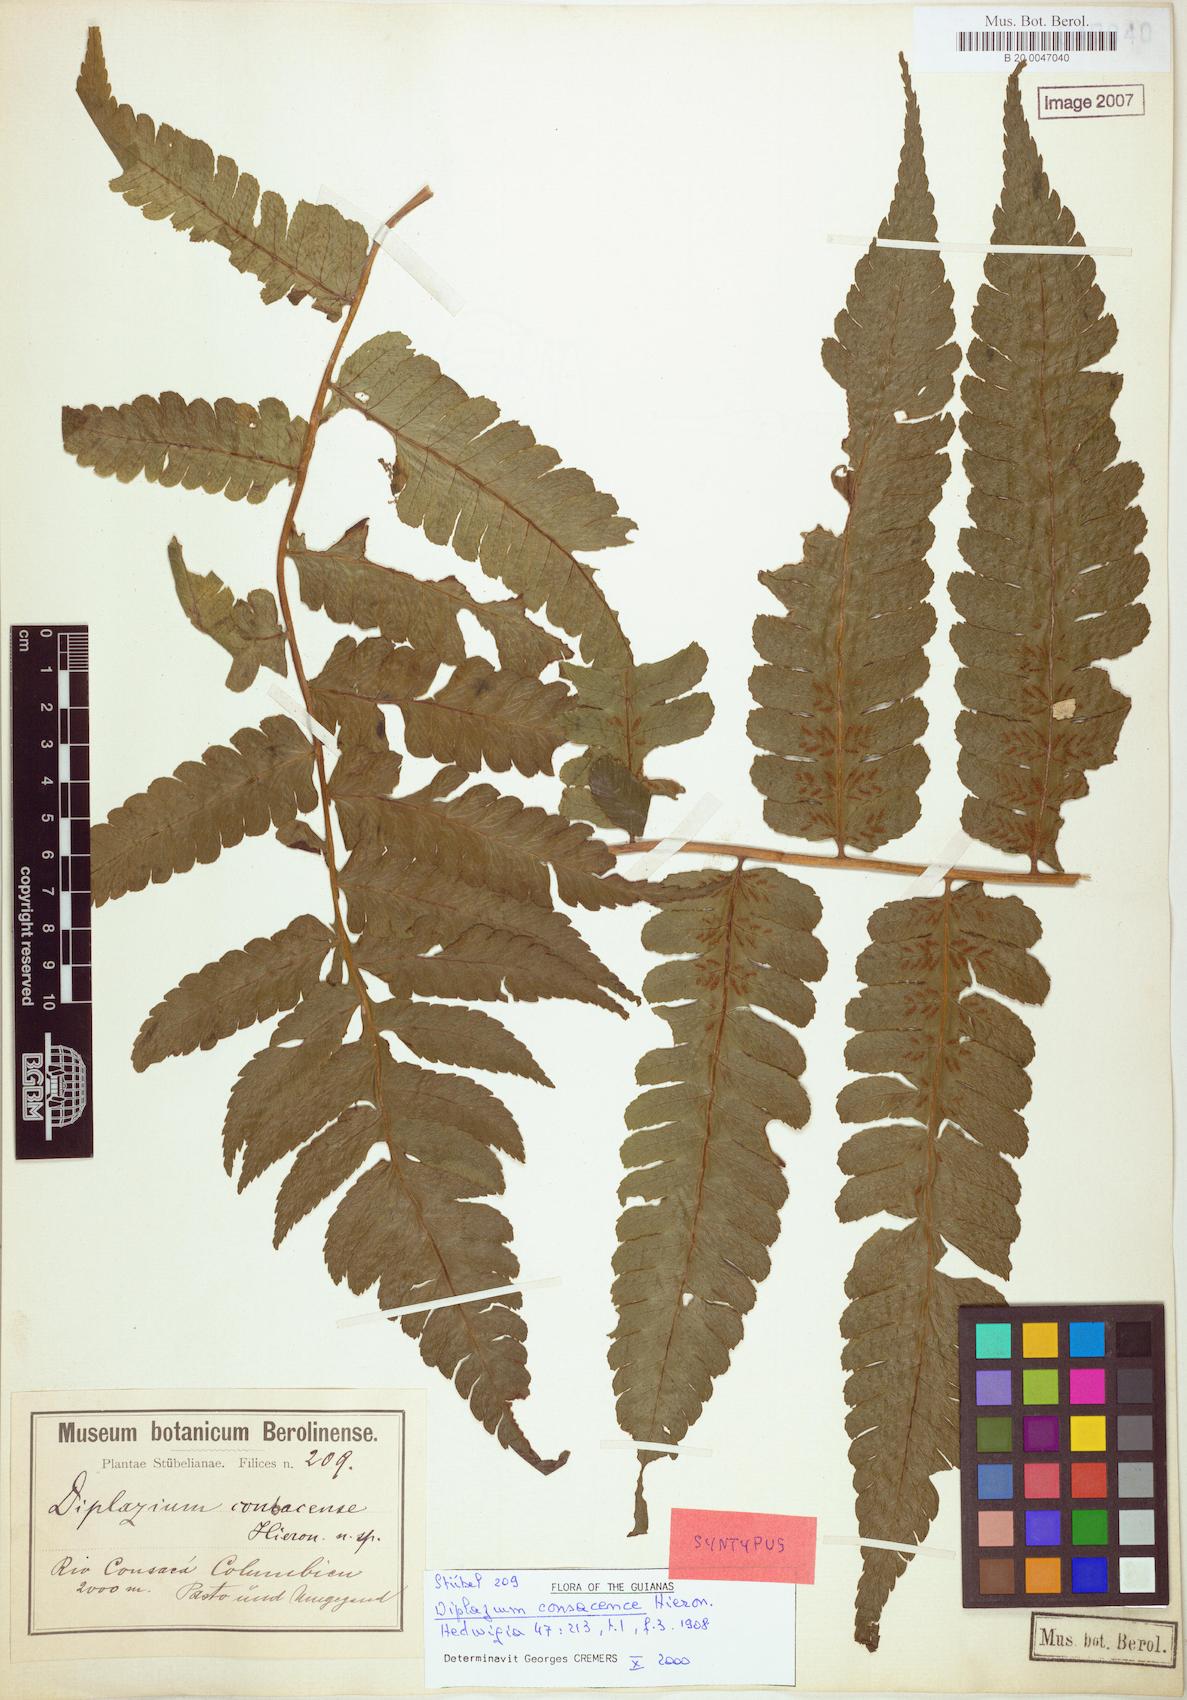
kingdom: Plantae
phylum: Tracheophyta
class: Polypodiopsida
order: Polypodiales
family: Athyriaceae
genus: Diplazium
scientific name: Diplazium consacense
